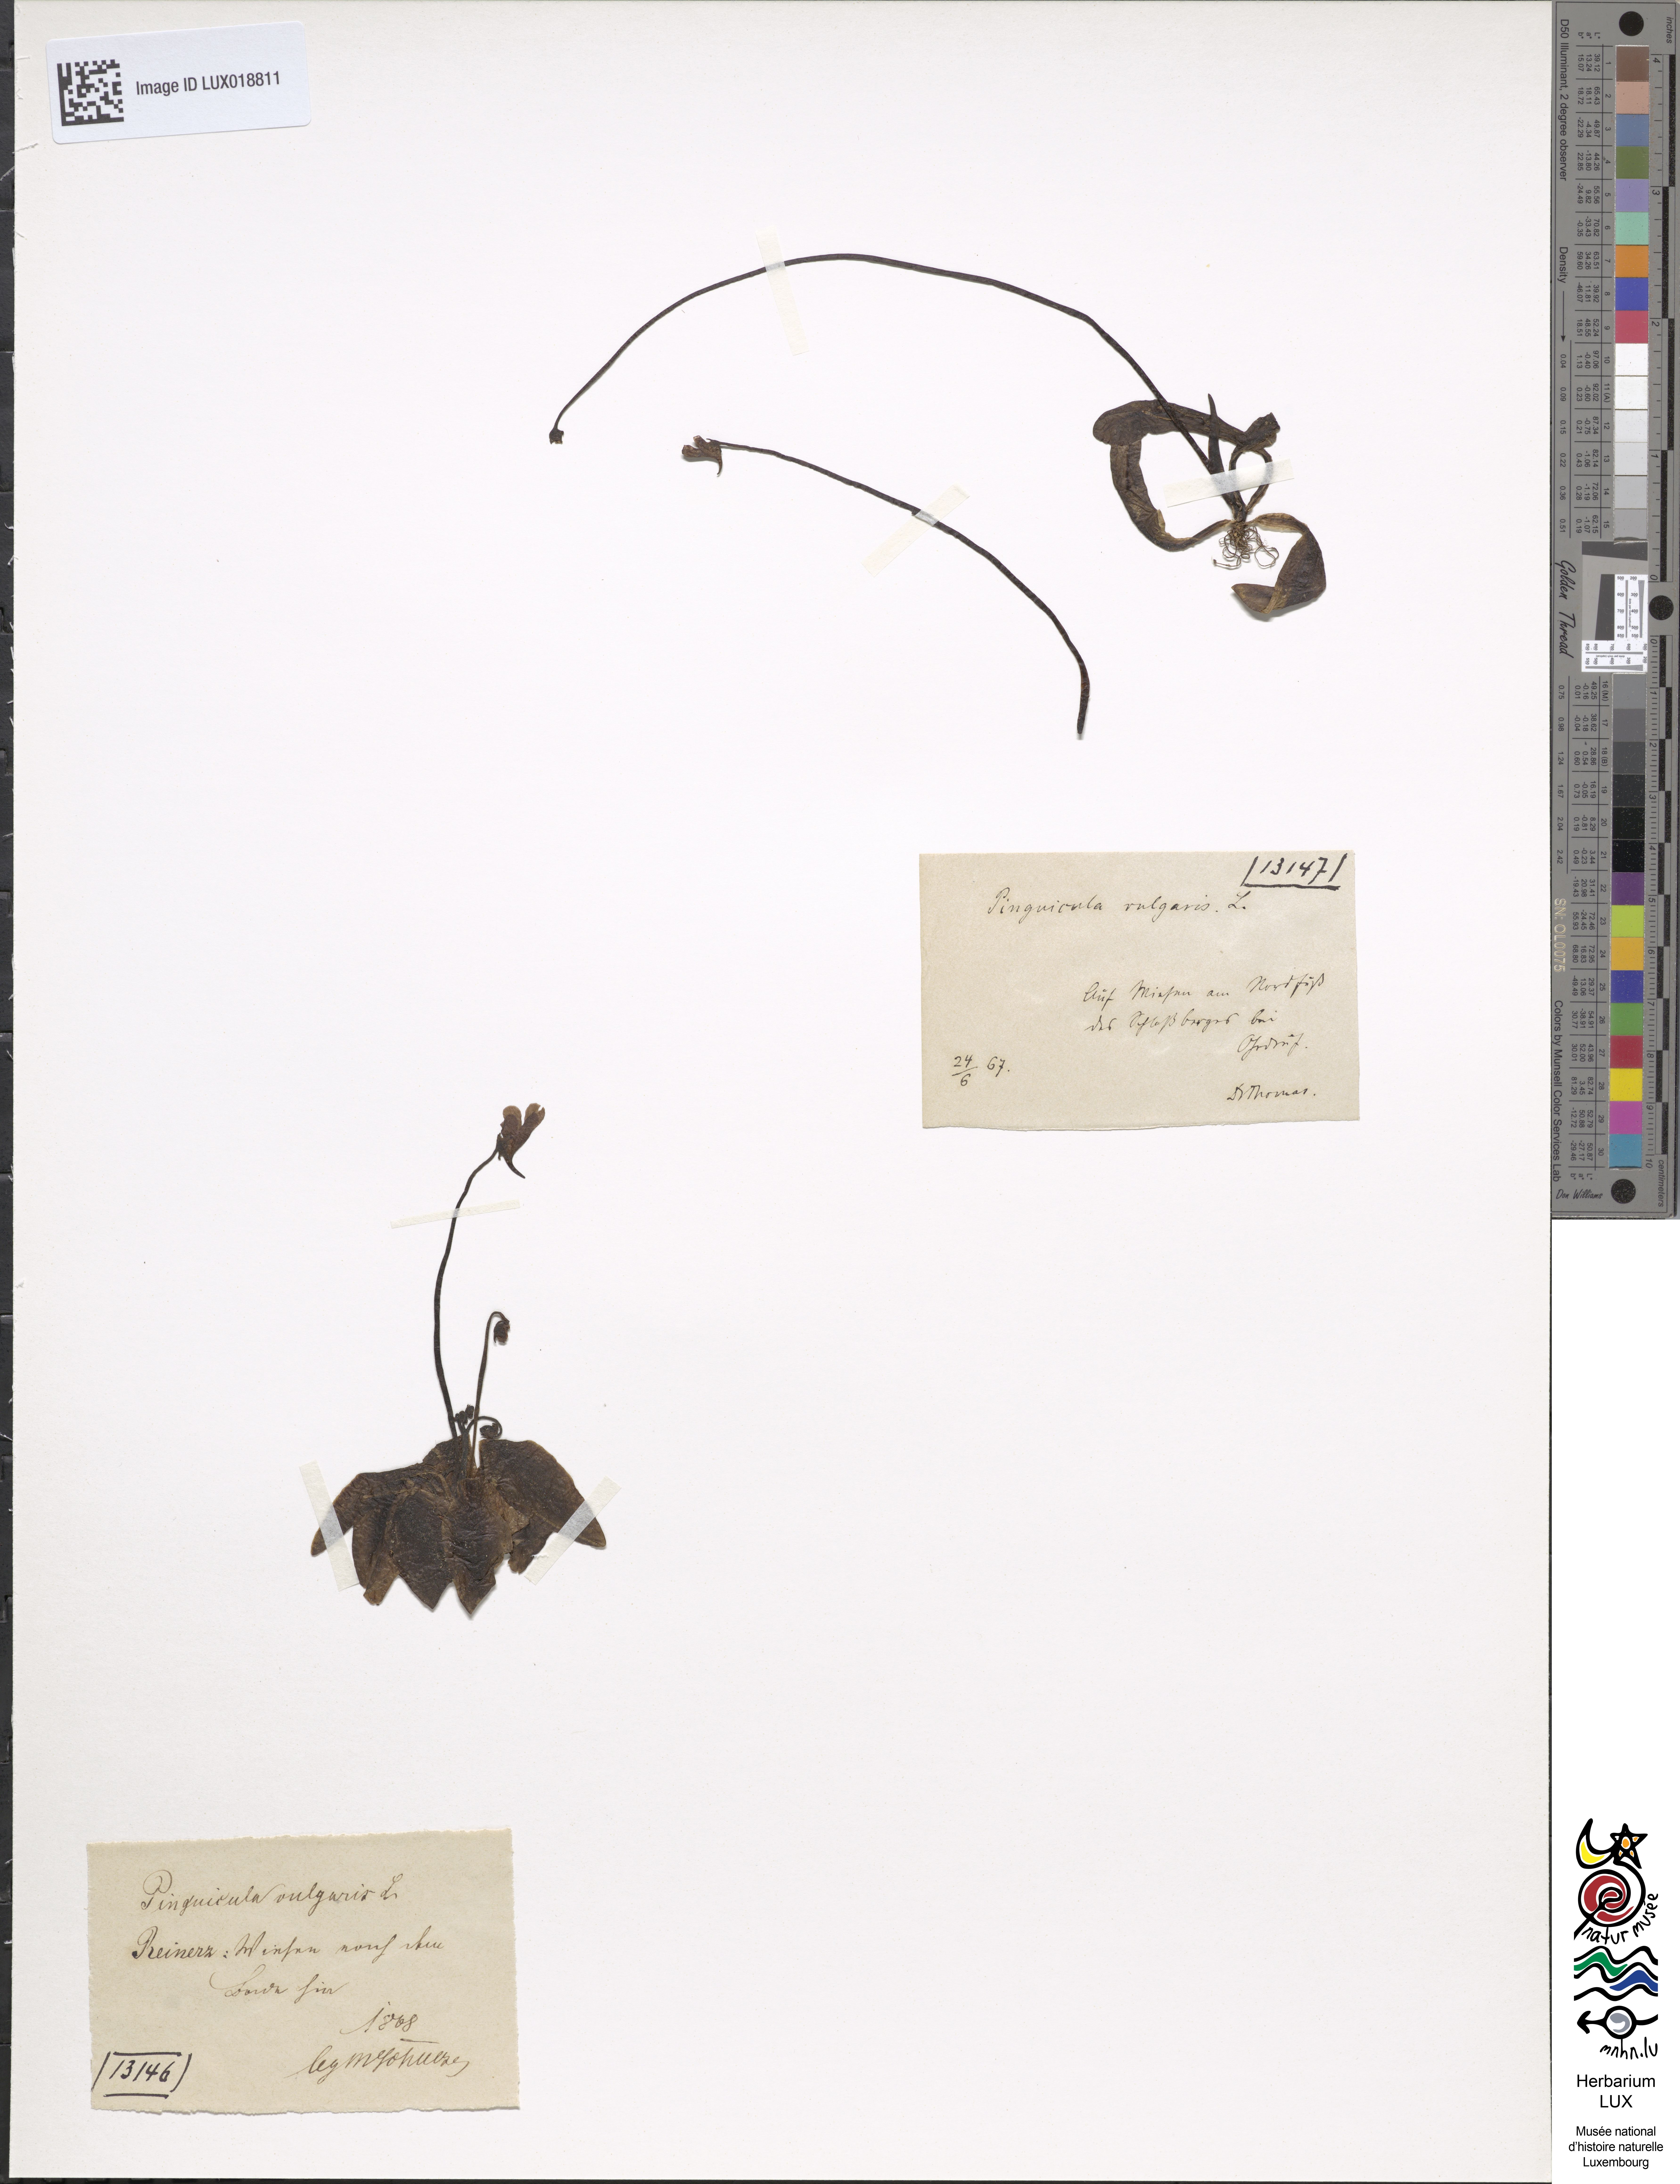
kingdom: Plantae
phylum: Tracheophyta
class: Magnoliopsida
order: Lamiales
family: Lentibulariaceae
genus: Pinguicula
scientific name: Pinguicula vulgaris
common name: Common butterwort
